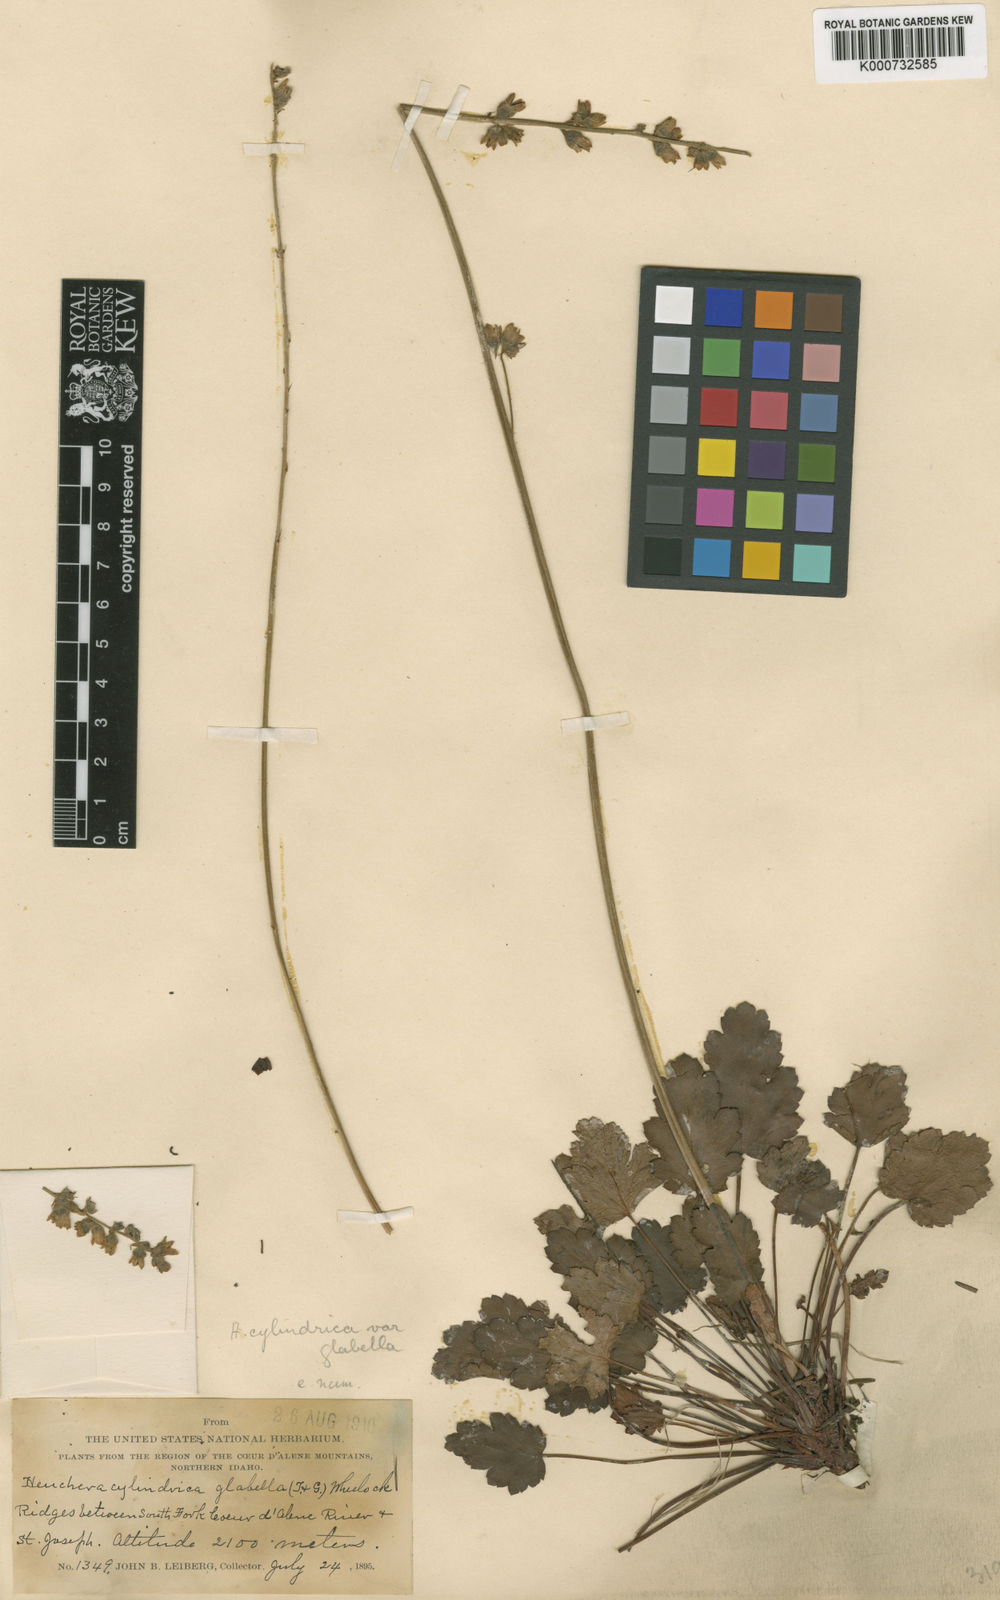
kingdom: Plantae
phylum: Tracheophyta
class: Magnoliopsida
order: Saxifragales
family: Saxifragaceae
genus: Heuchera
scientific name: Heuchera cylindrica
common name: Mat alumroot
